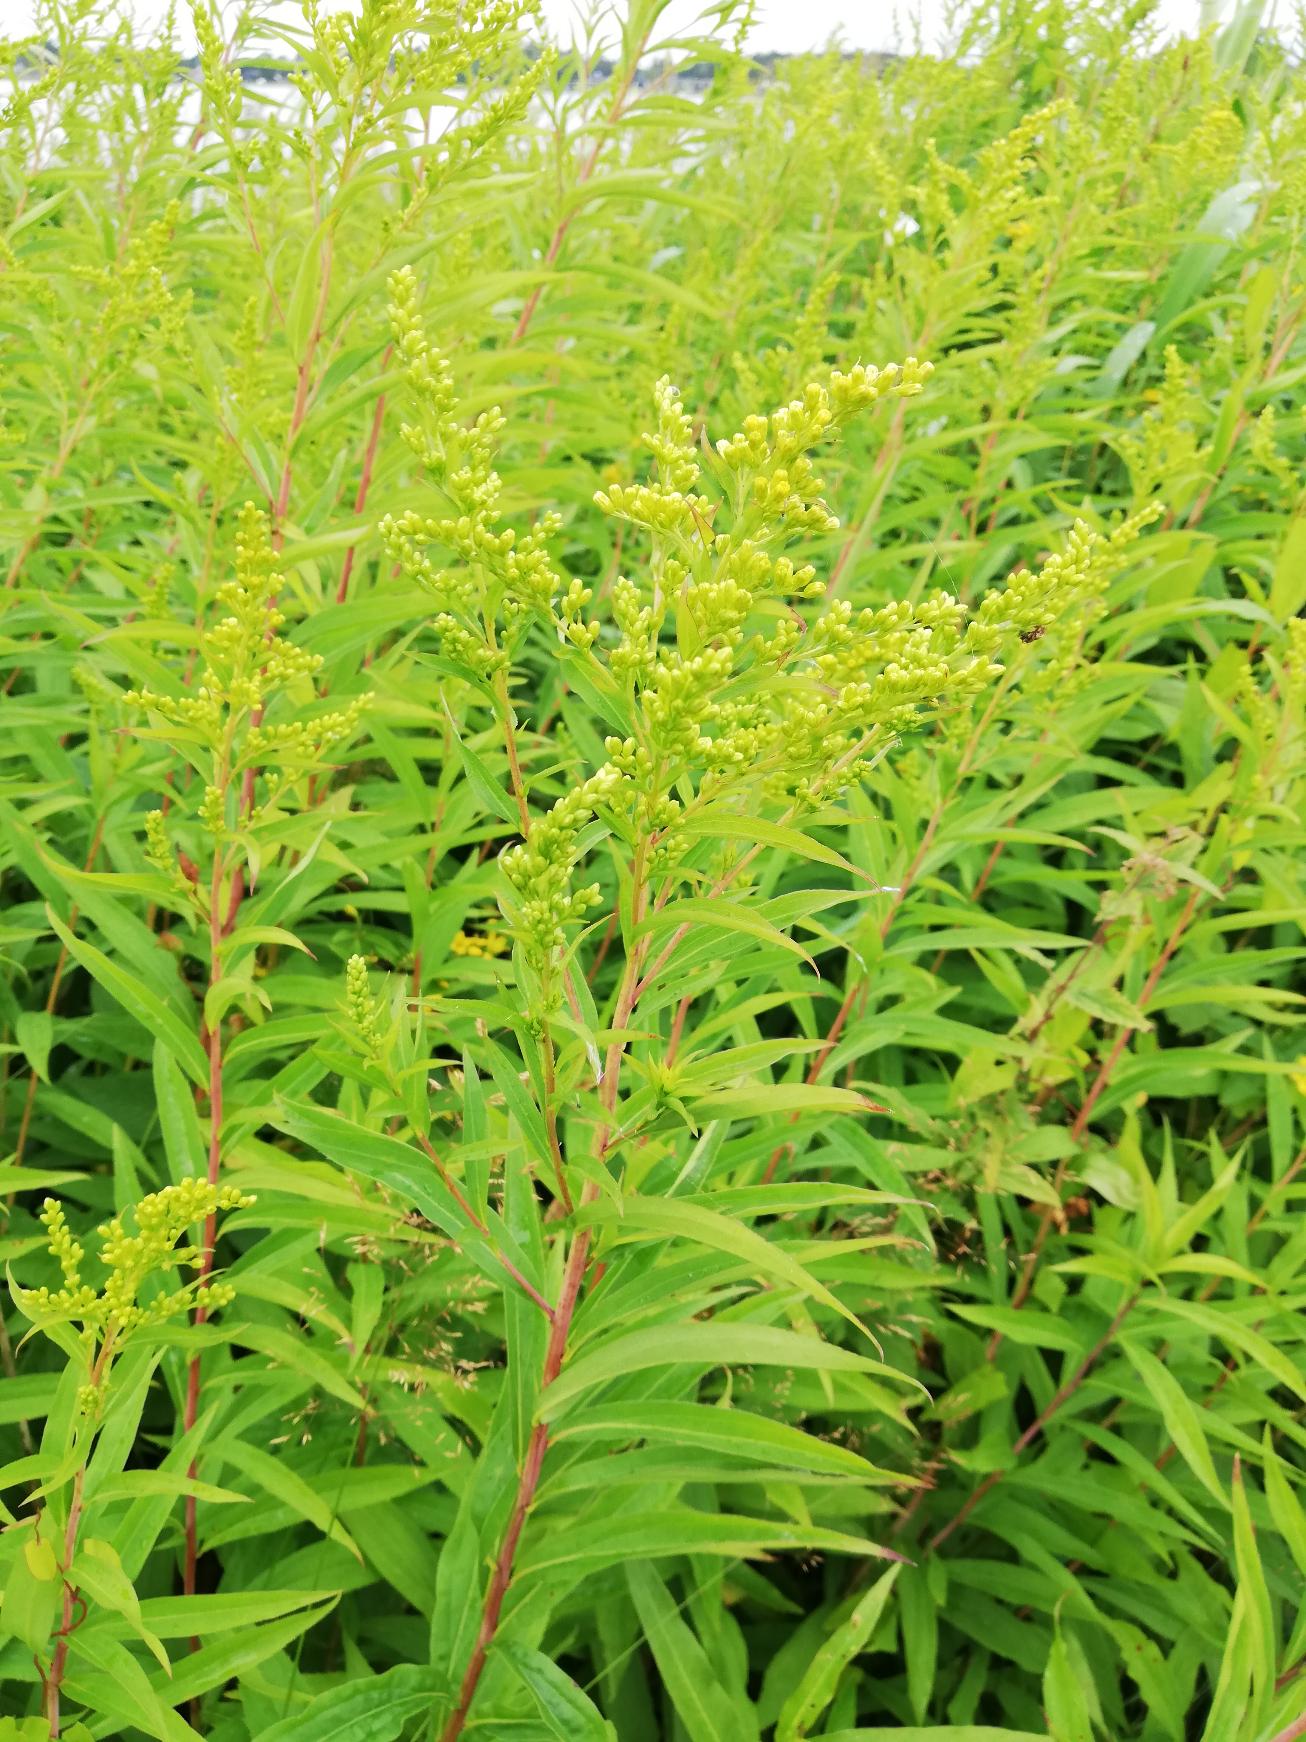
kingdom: Plantae
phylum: Tracheophyta
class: Magnoliopsida
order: Asterales
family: Asteraceae
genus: Solidago
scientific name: Solidago gigantea
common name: Sildig gyldenris
